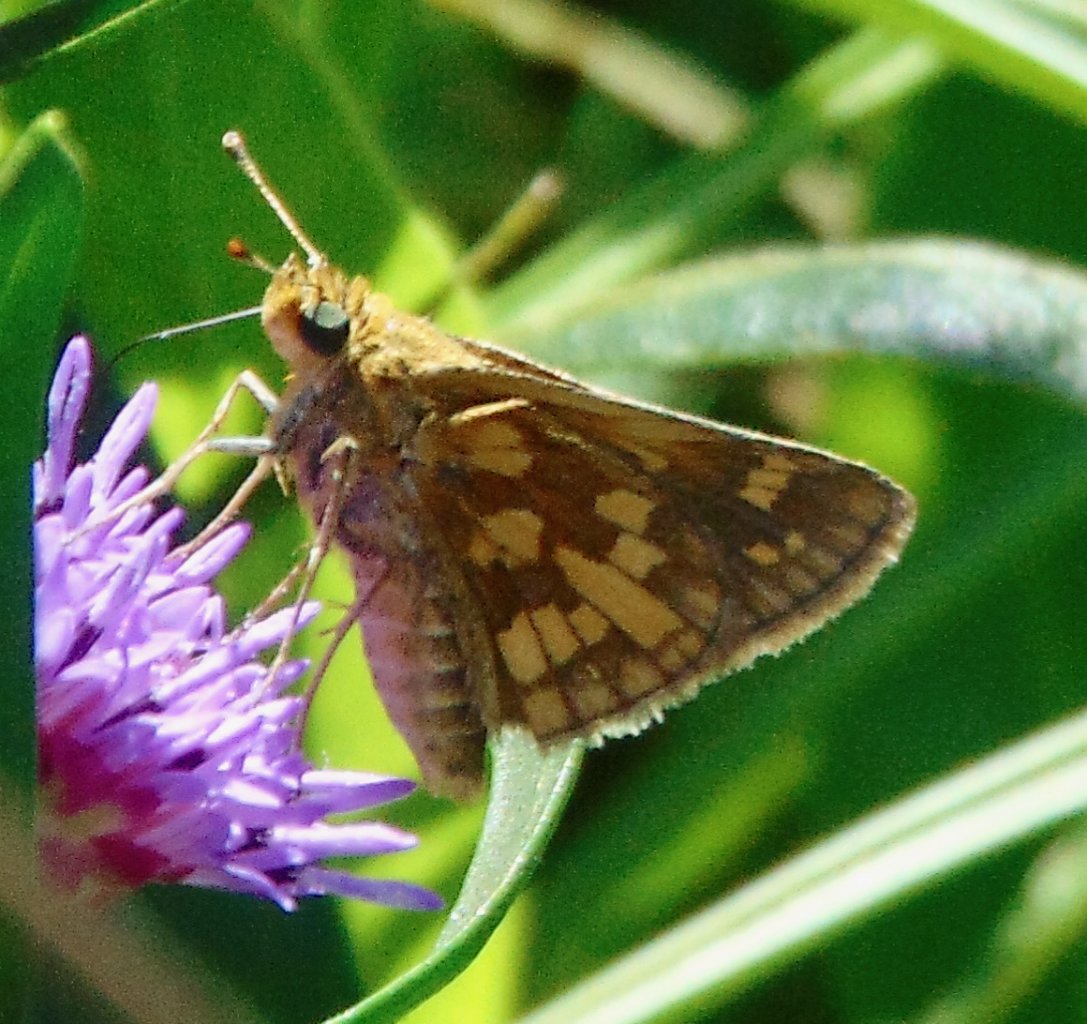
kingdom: Animalia
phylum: Arthropoda
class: Insecta
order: Lepidoptera
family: Hesperiidae
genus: Polites
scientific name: Polites coras
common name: Peck's Skipper
